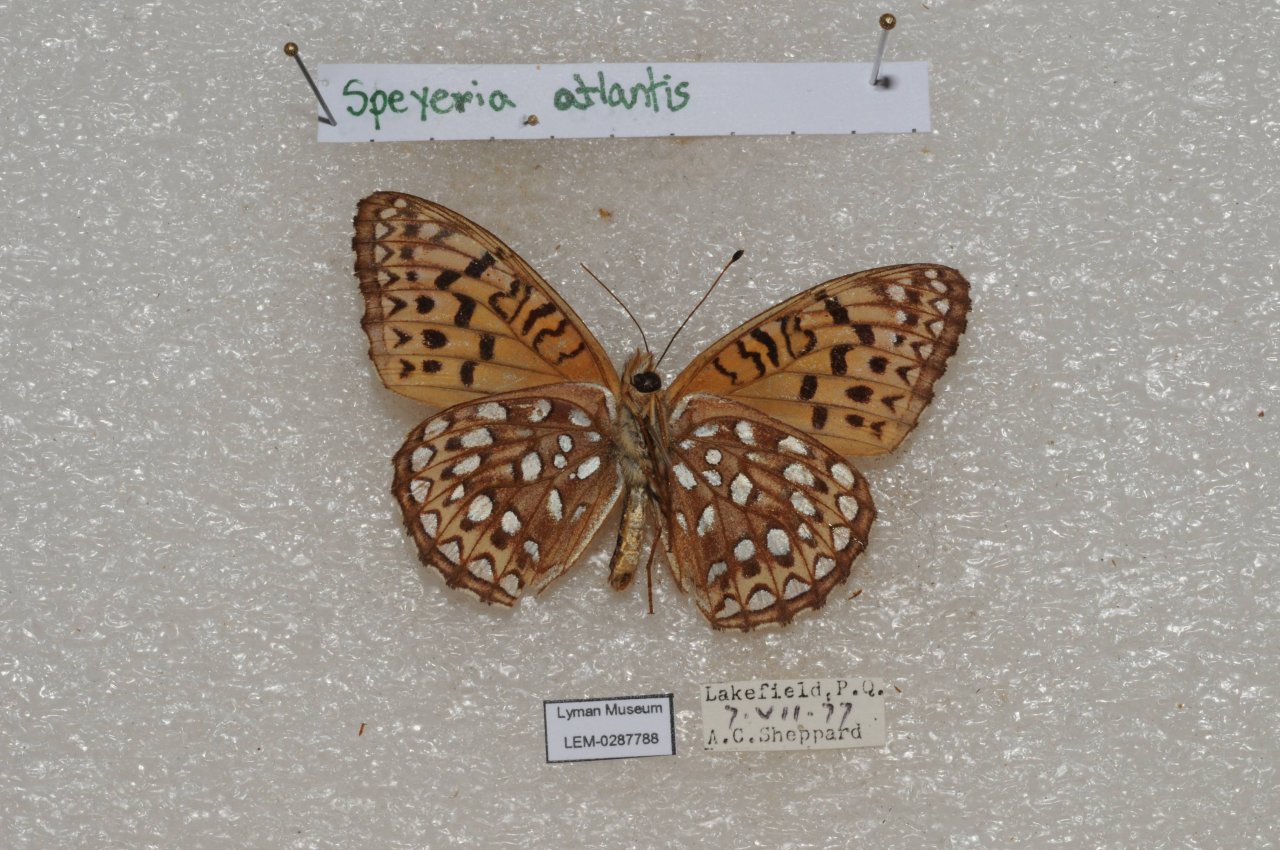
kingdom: Animalia
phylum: Arthropoda
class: Insecta
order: Lepidoptera
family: Nymphalidae
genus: Speyeria
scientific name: Speyeria atlantis
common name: Atlantis Fritillary
